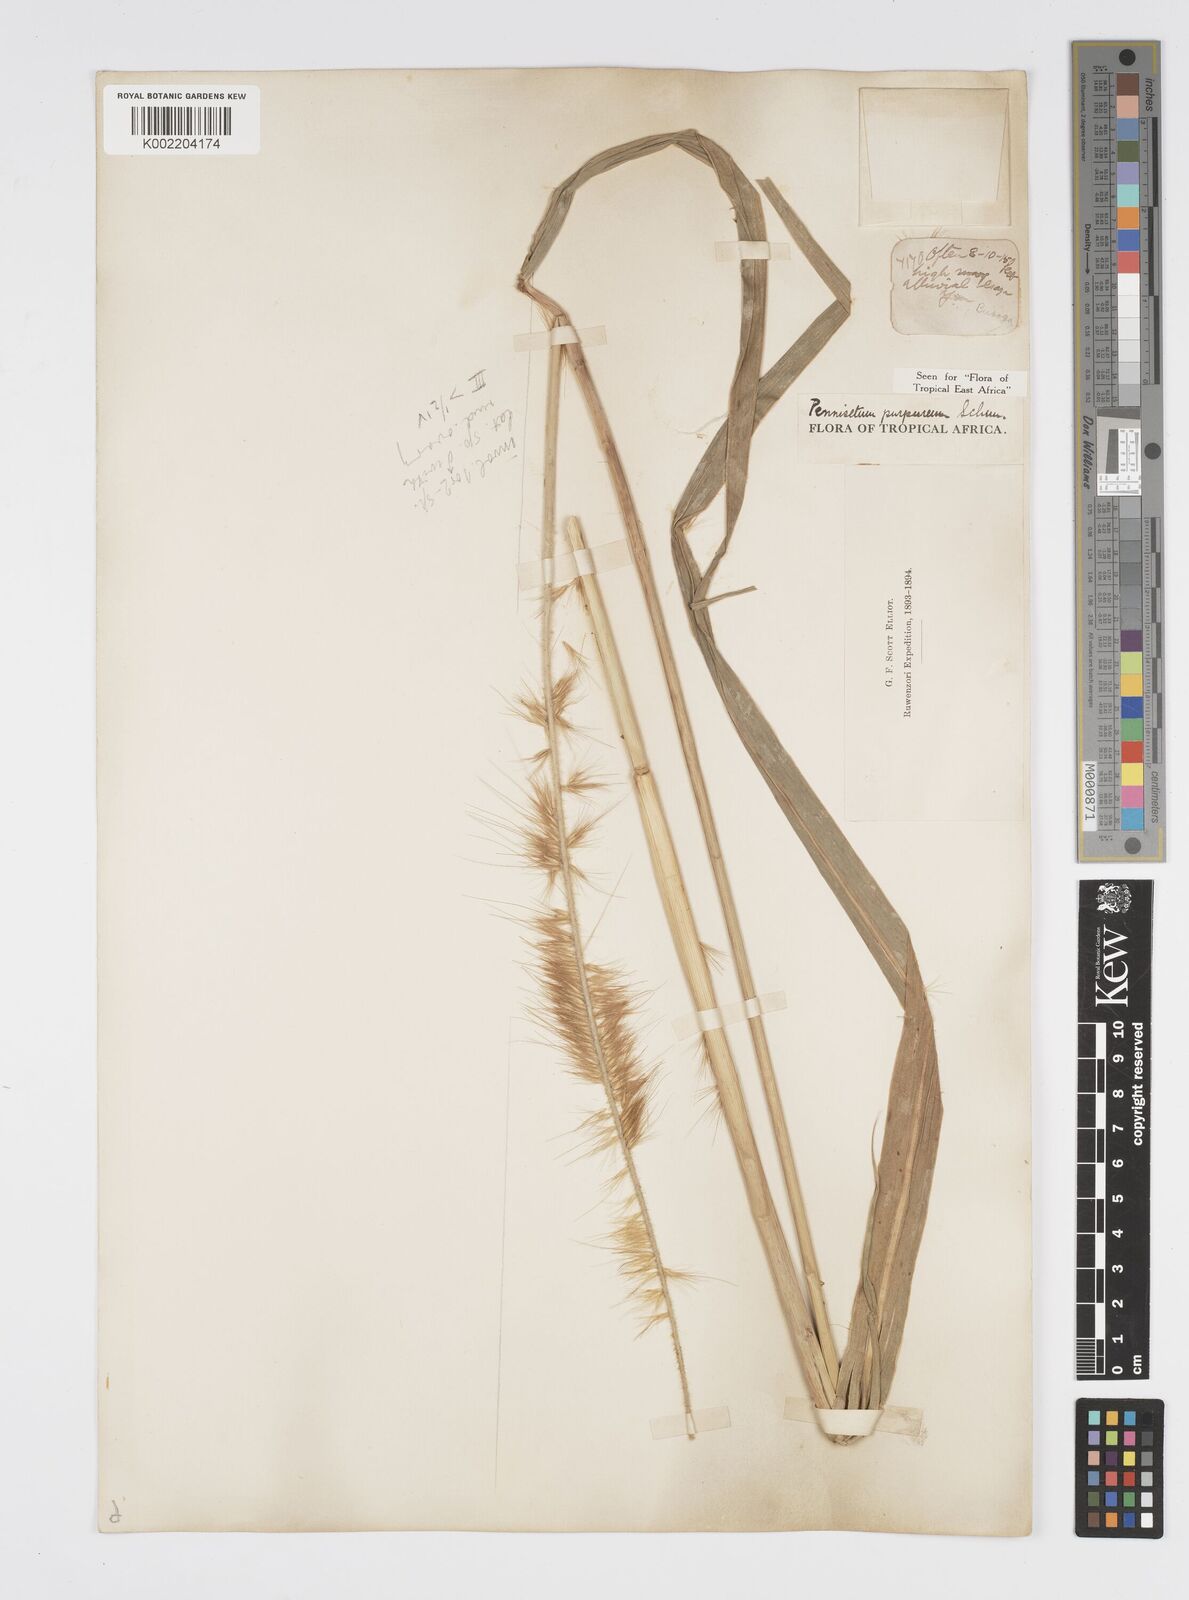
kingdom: Plantae
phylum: Tracheophyta
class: Liliopsida
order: Poales
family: Poaceae
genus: Cenchrus
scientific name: Cenchrus purpureus
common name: Elephant grass
